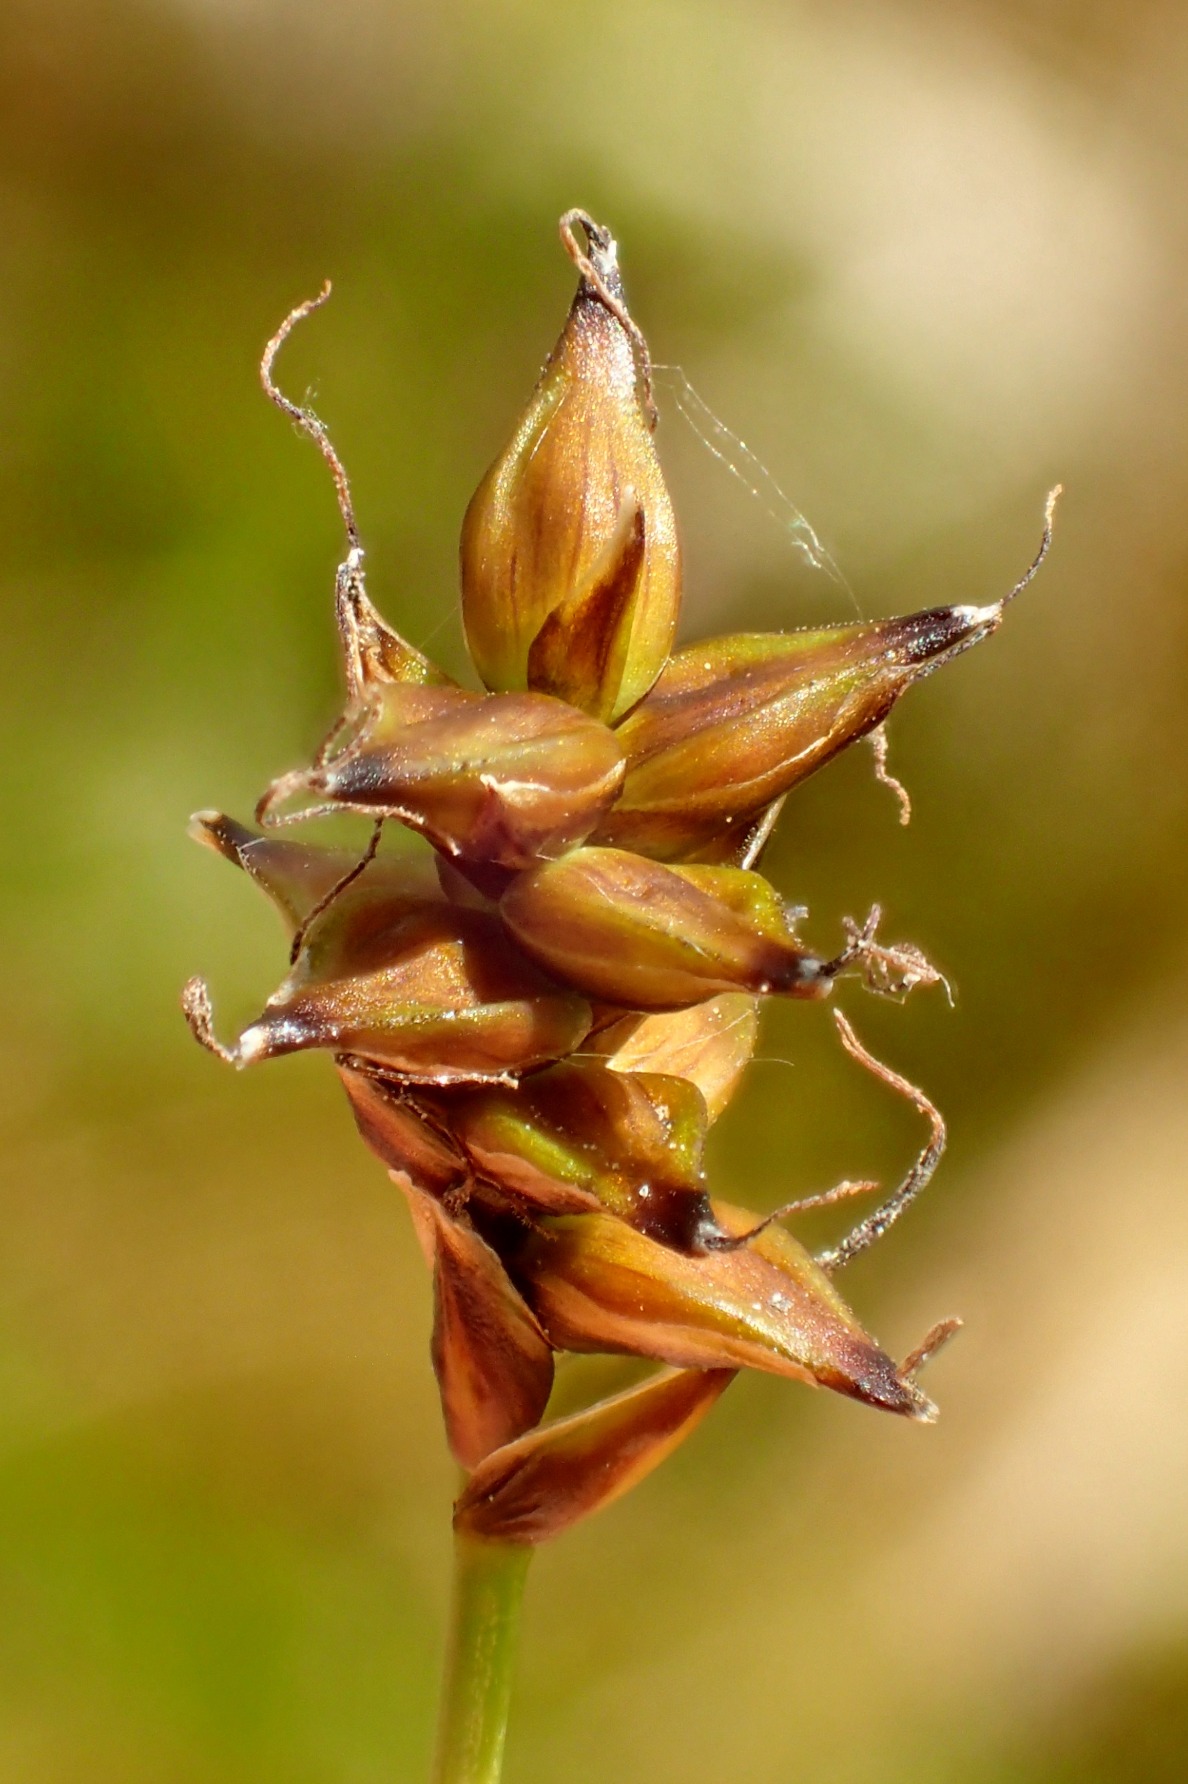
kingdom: Plantae
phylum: Tracheophyta
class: Liliopsida
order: Poales
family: Cyperaceae
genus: Carex
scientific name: Carex dioica
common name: Tvebo star
